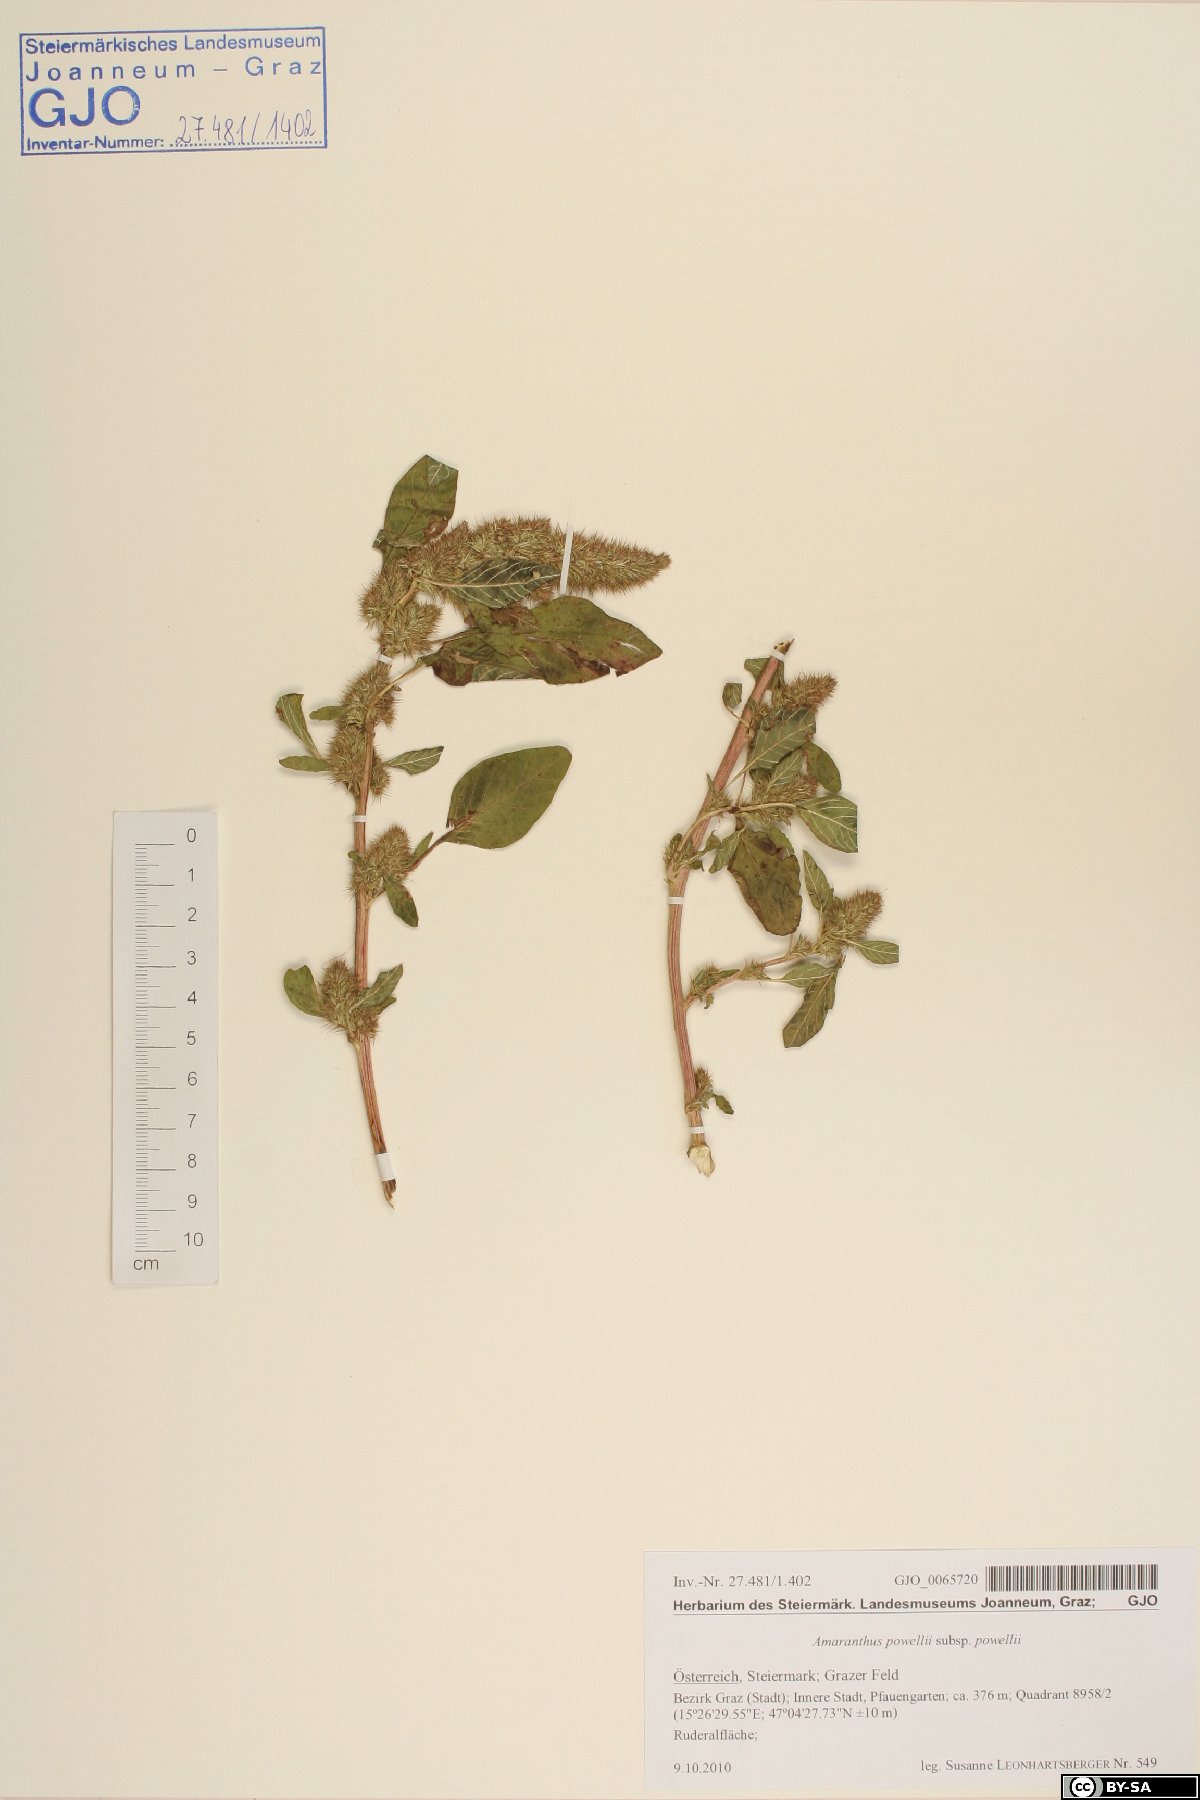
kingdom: Plantae
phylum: Tracheophyta
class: Magnoliopsida
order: Caryophyllales
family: Amaranthaceae
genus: Amaranthus
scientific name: Amaranthus powellii
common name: Powell's amaranth
